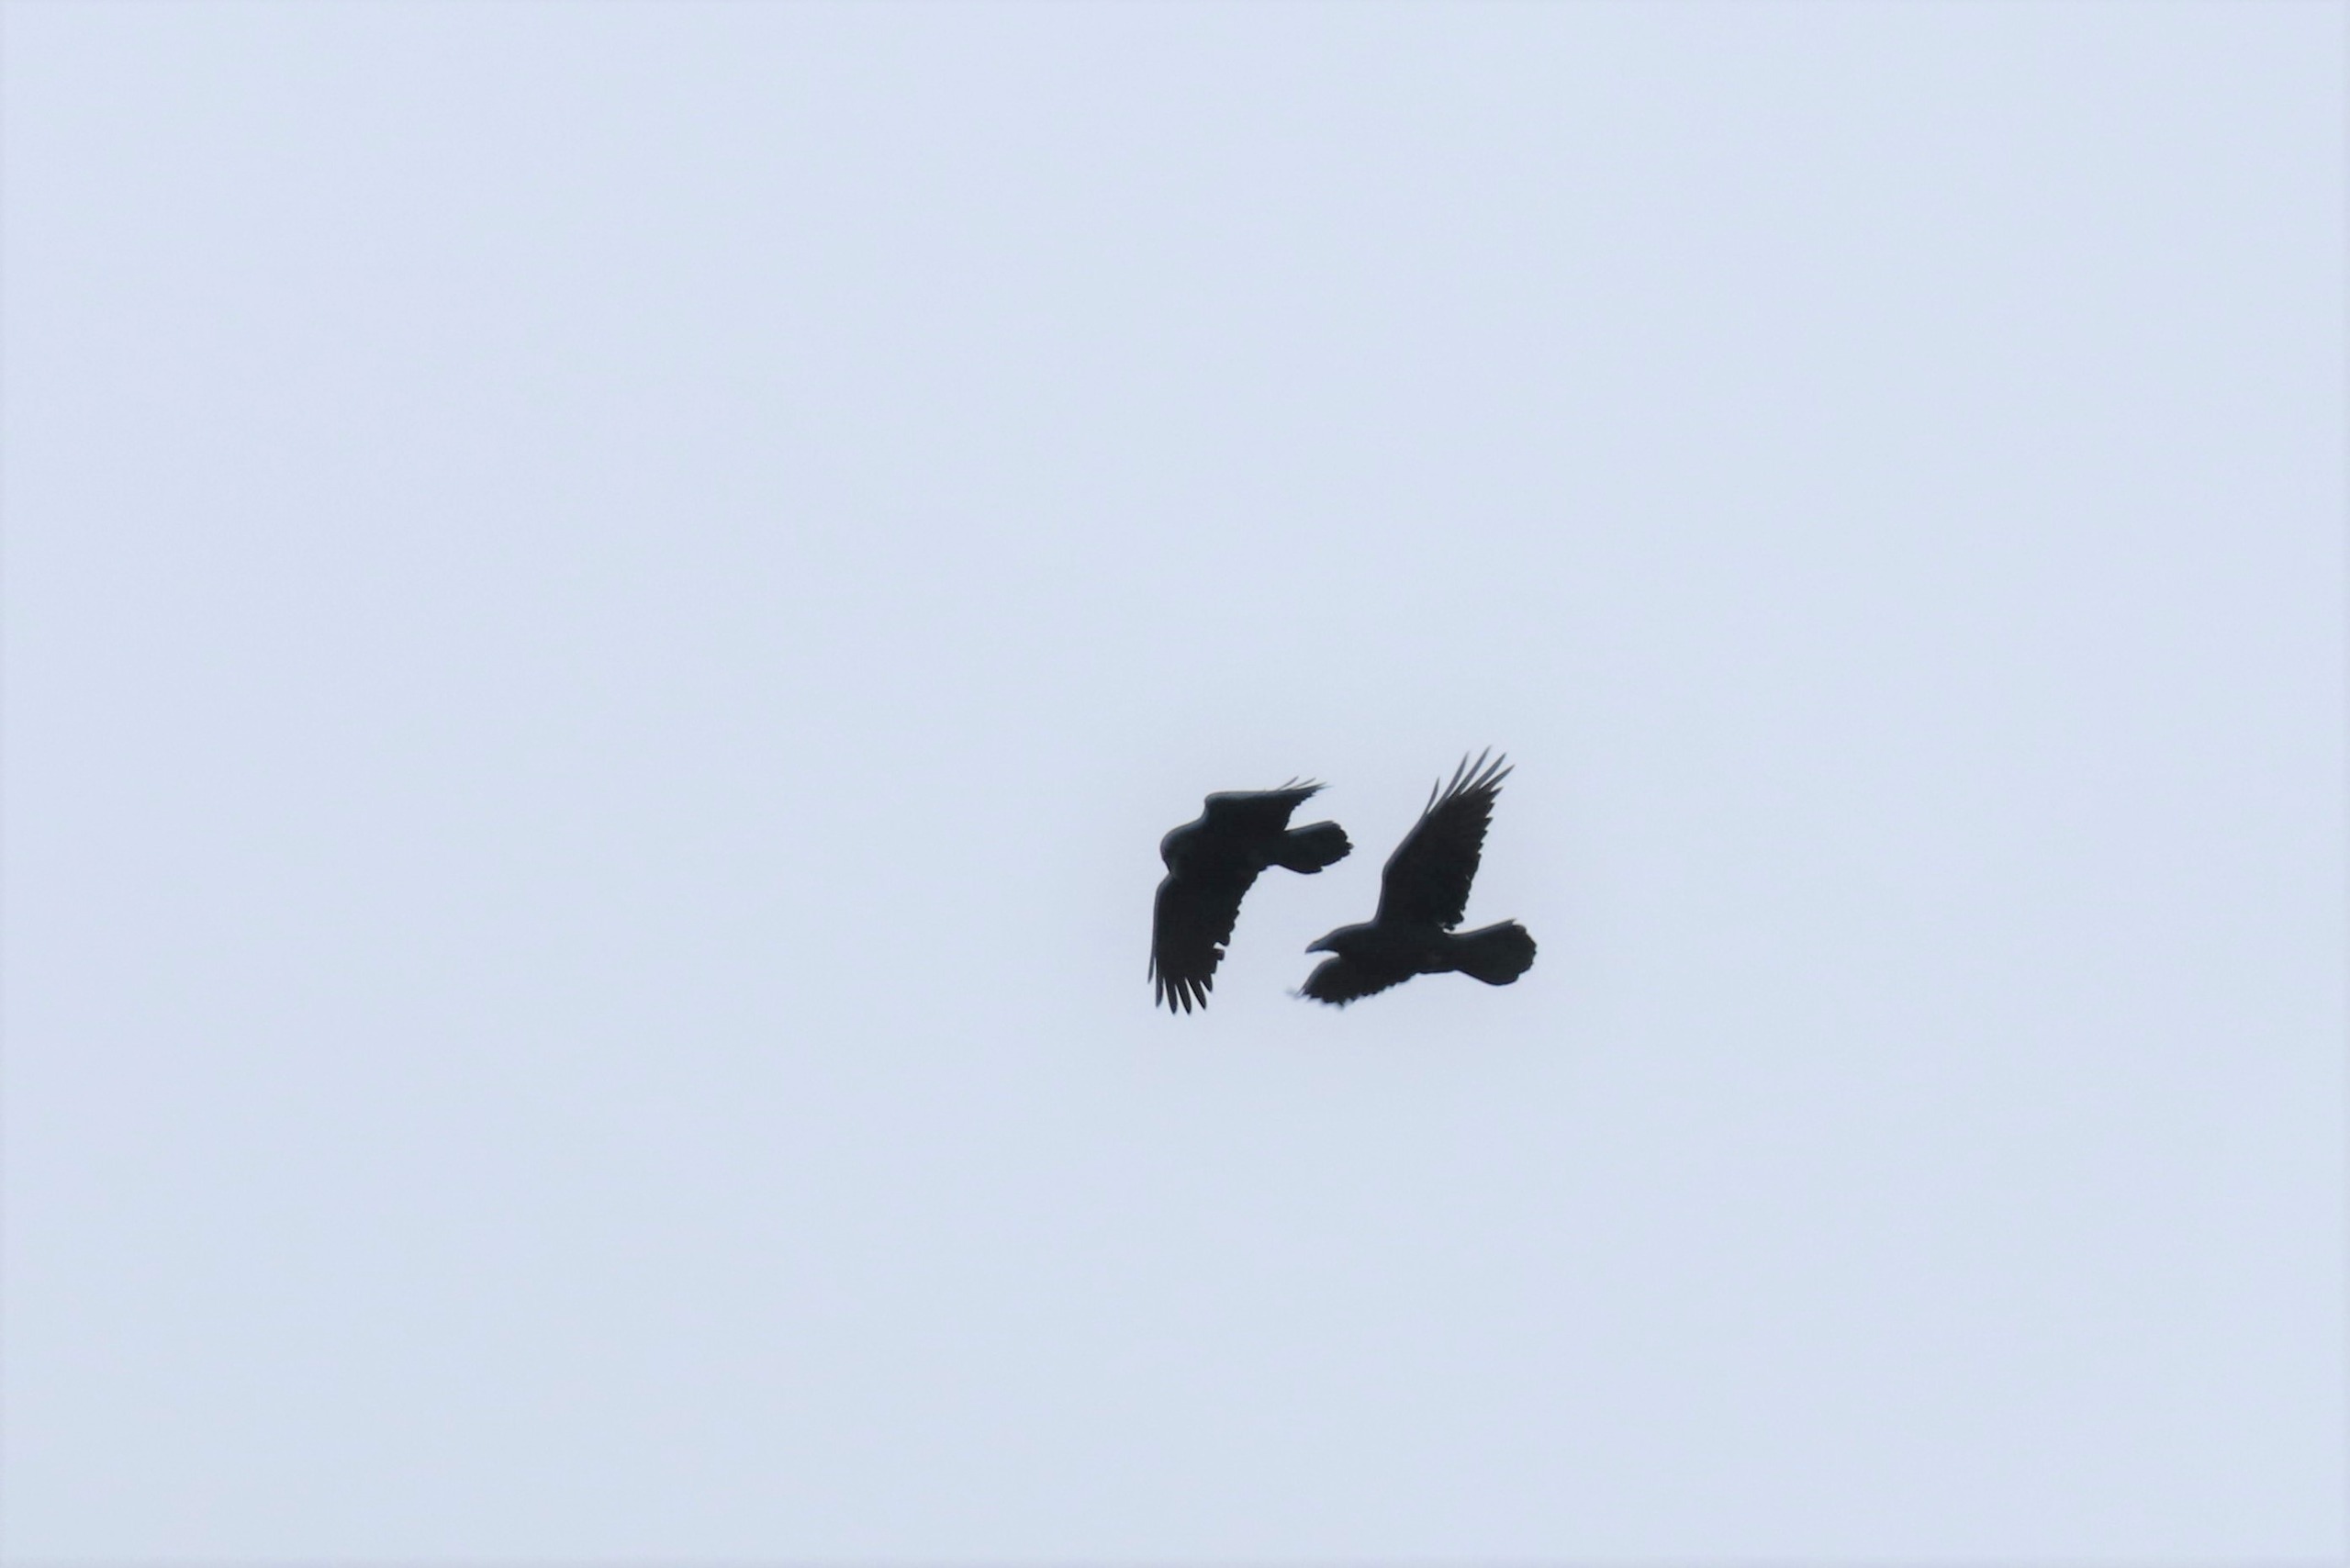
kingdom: Animalia
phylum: Chordata
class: Aves
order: Passeriformes
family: Corvidae
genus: Corvus
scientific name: Corvus corax
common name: Ravn
